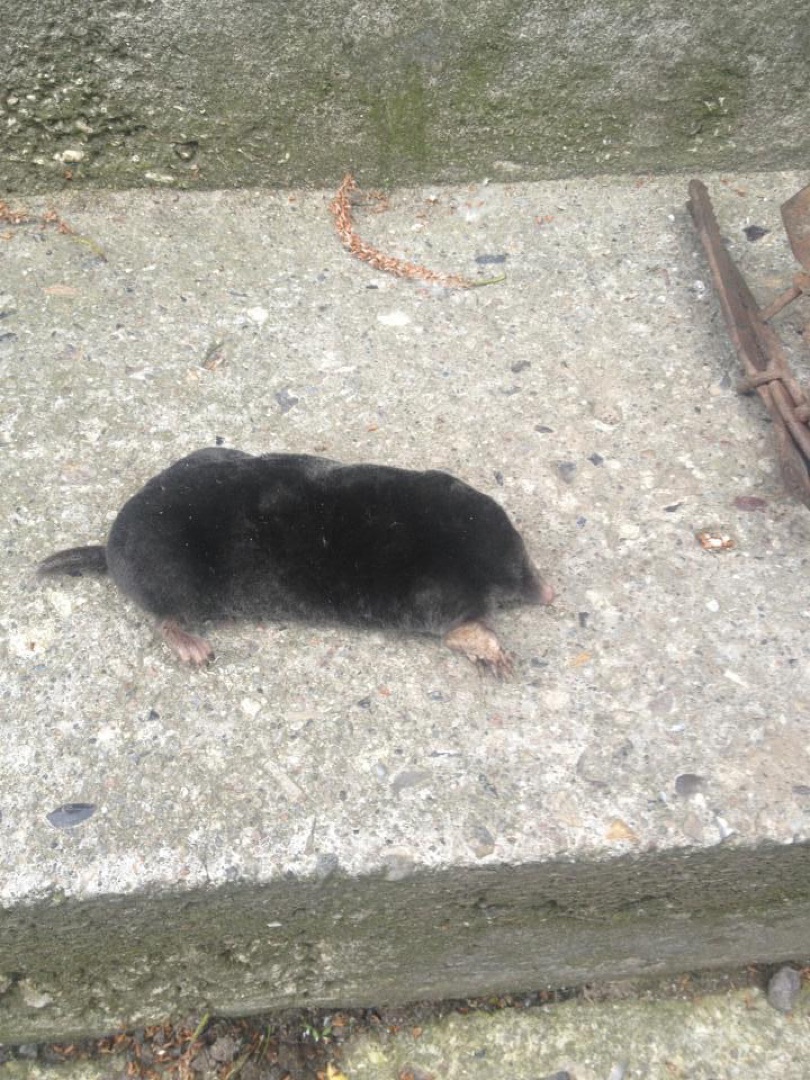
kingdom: Animalia
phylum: Chordata
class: Mammalia
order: Soricomorpha
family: Talpidae
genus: Talpa
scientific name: Talpa europaea
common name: Muldvarp
